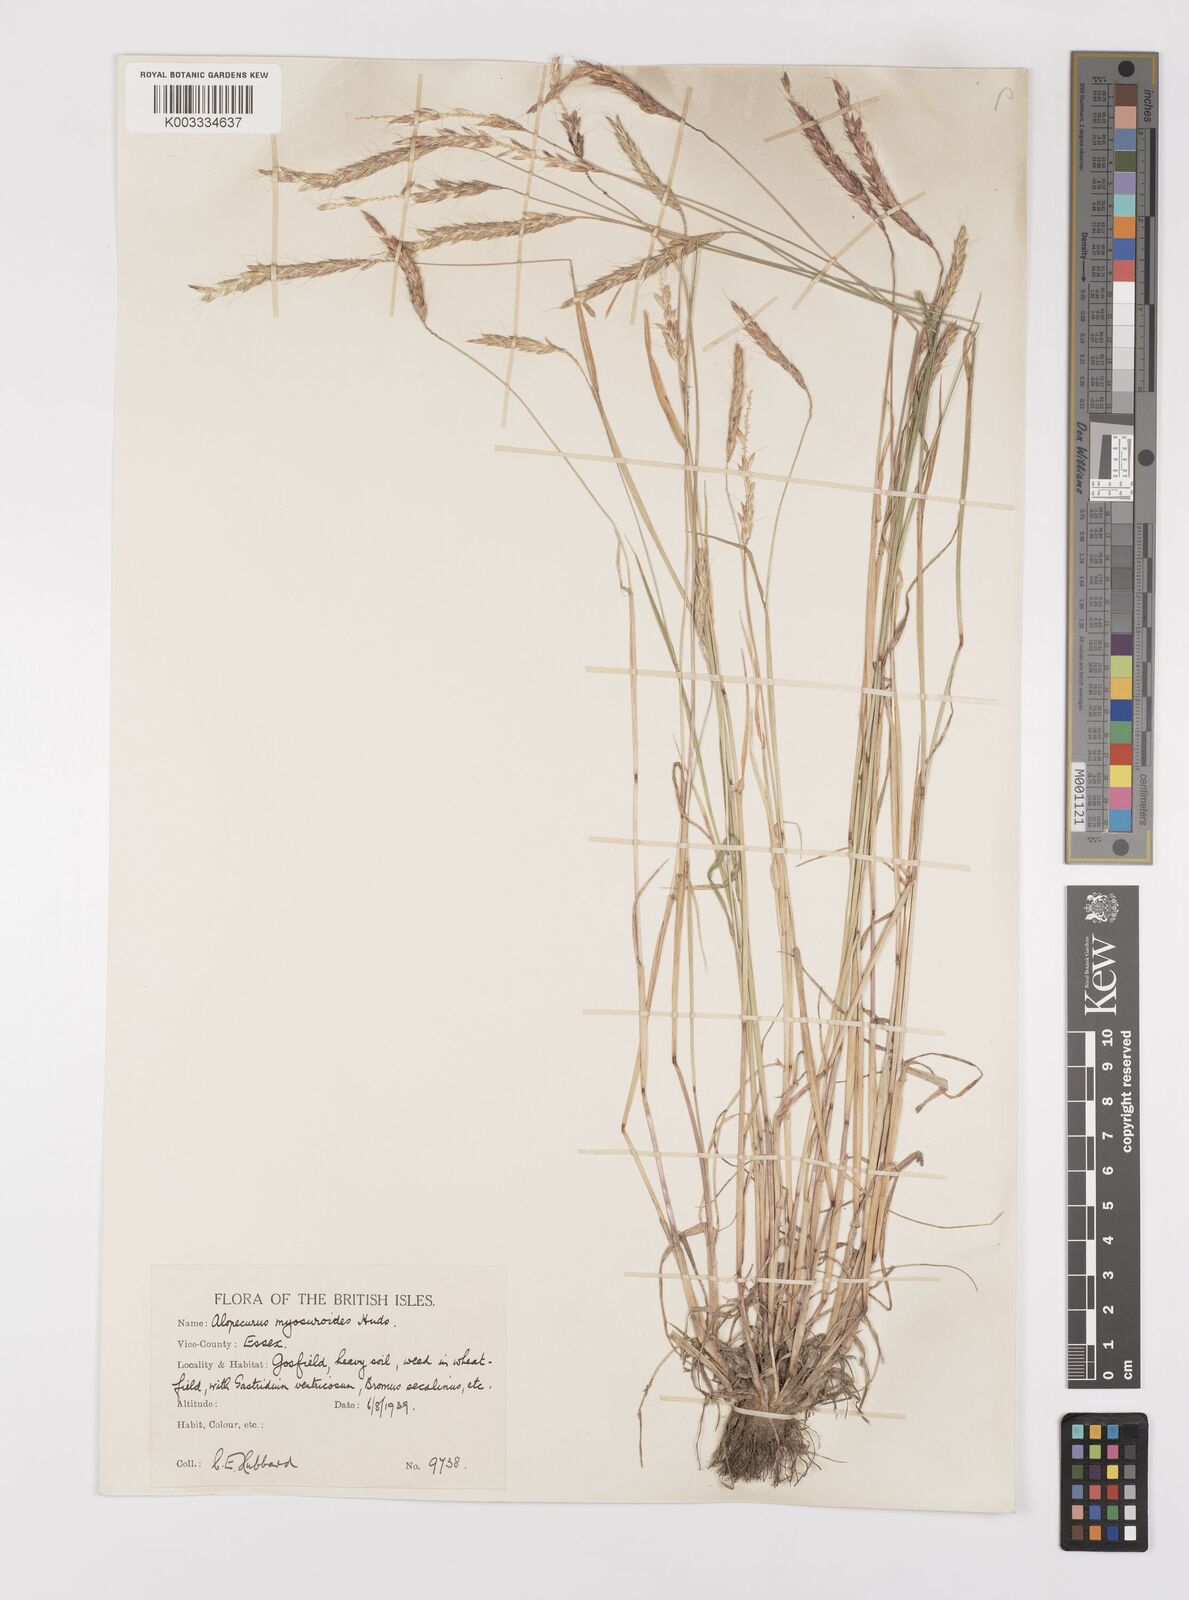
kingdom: Plantae
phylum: Tracheophyta
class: Liliopsida
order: Poales
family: Poaceae
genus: Alopecurus
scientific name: Alopecurus myosuroides
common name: Black-grass
